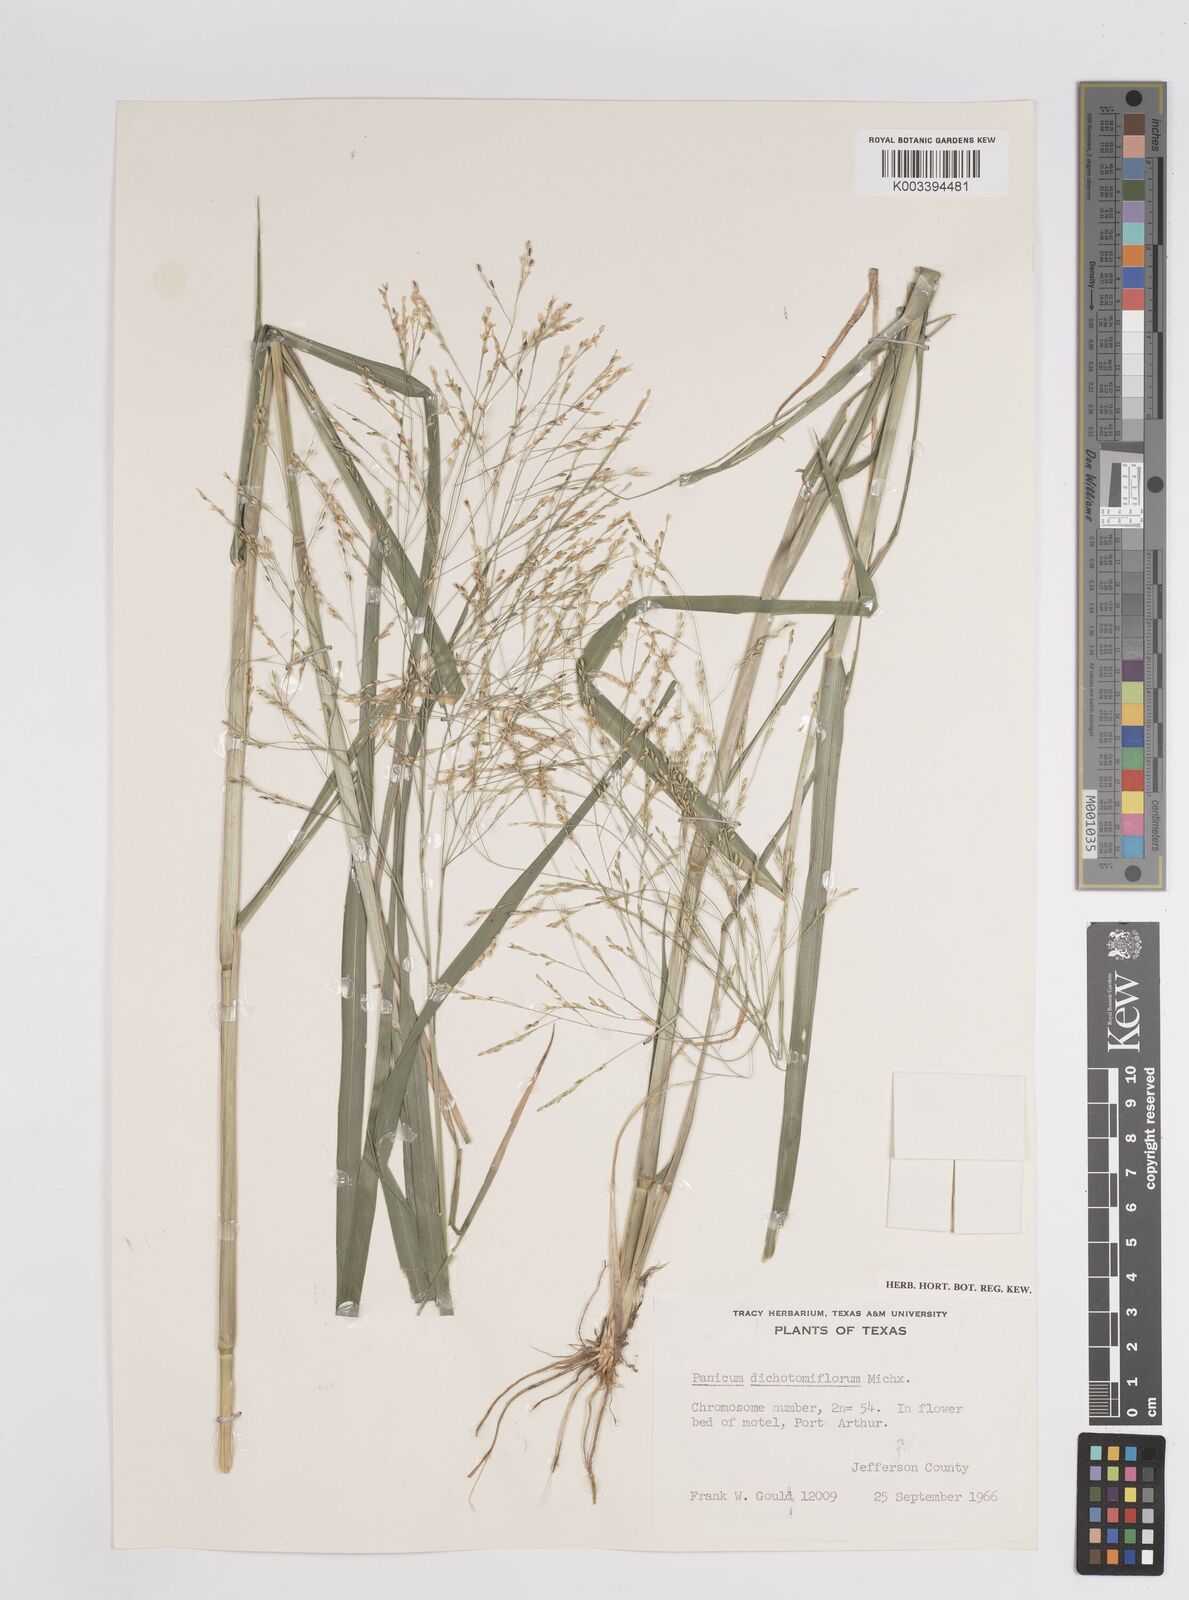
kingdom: Plantae
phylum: Tracheophyta
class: Liliopsida
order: Poales
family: Poaceae
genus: Panicum
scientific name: Panicum dichotomiflorum
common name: Autumn millet
